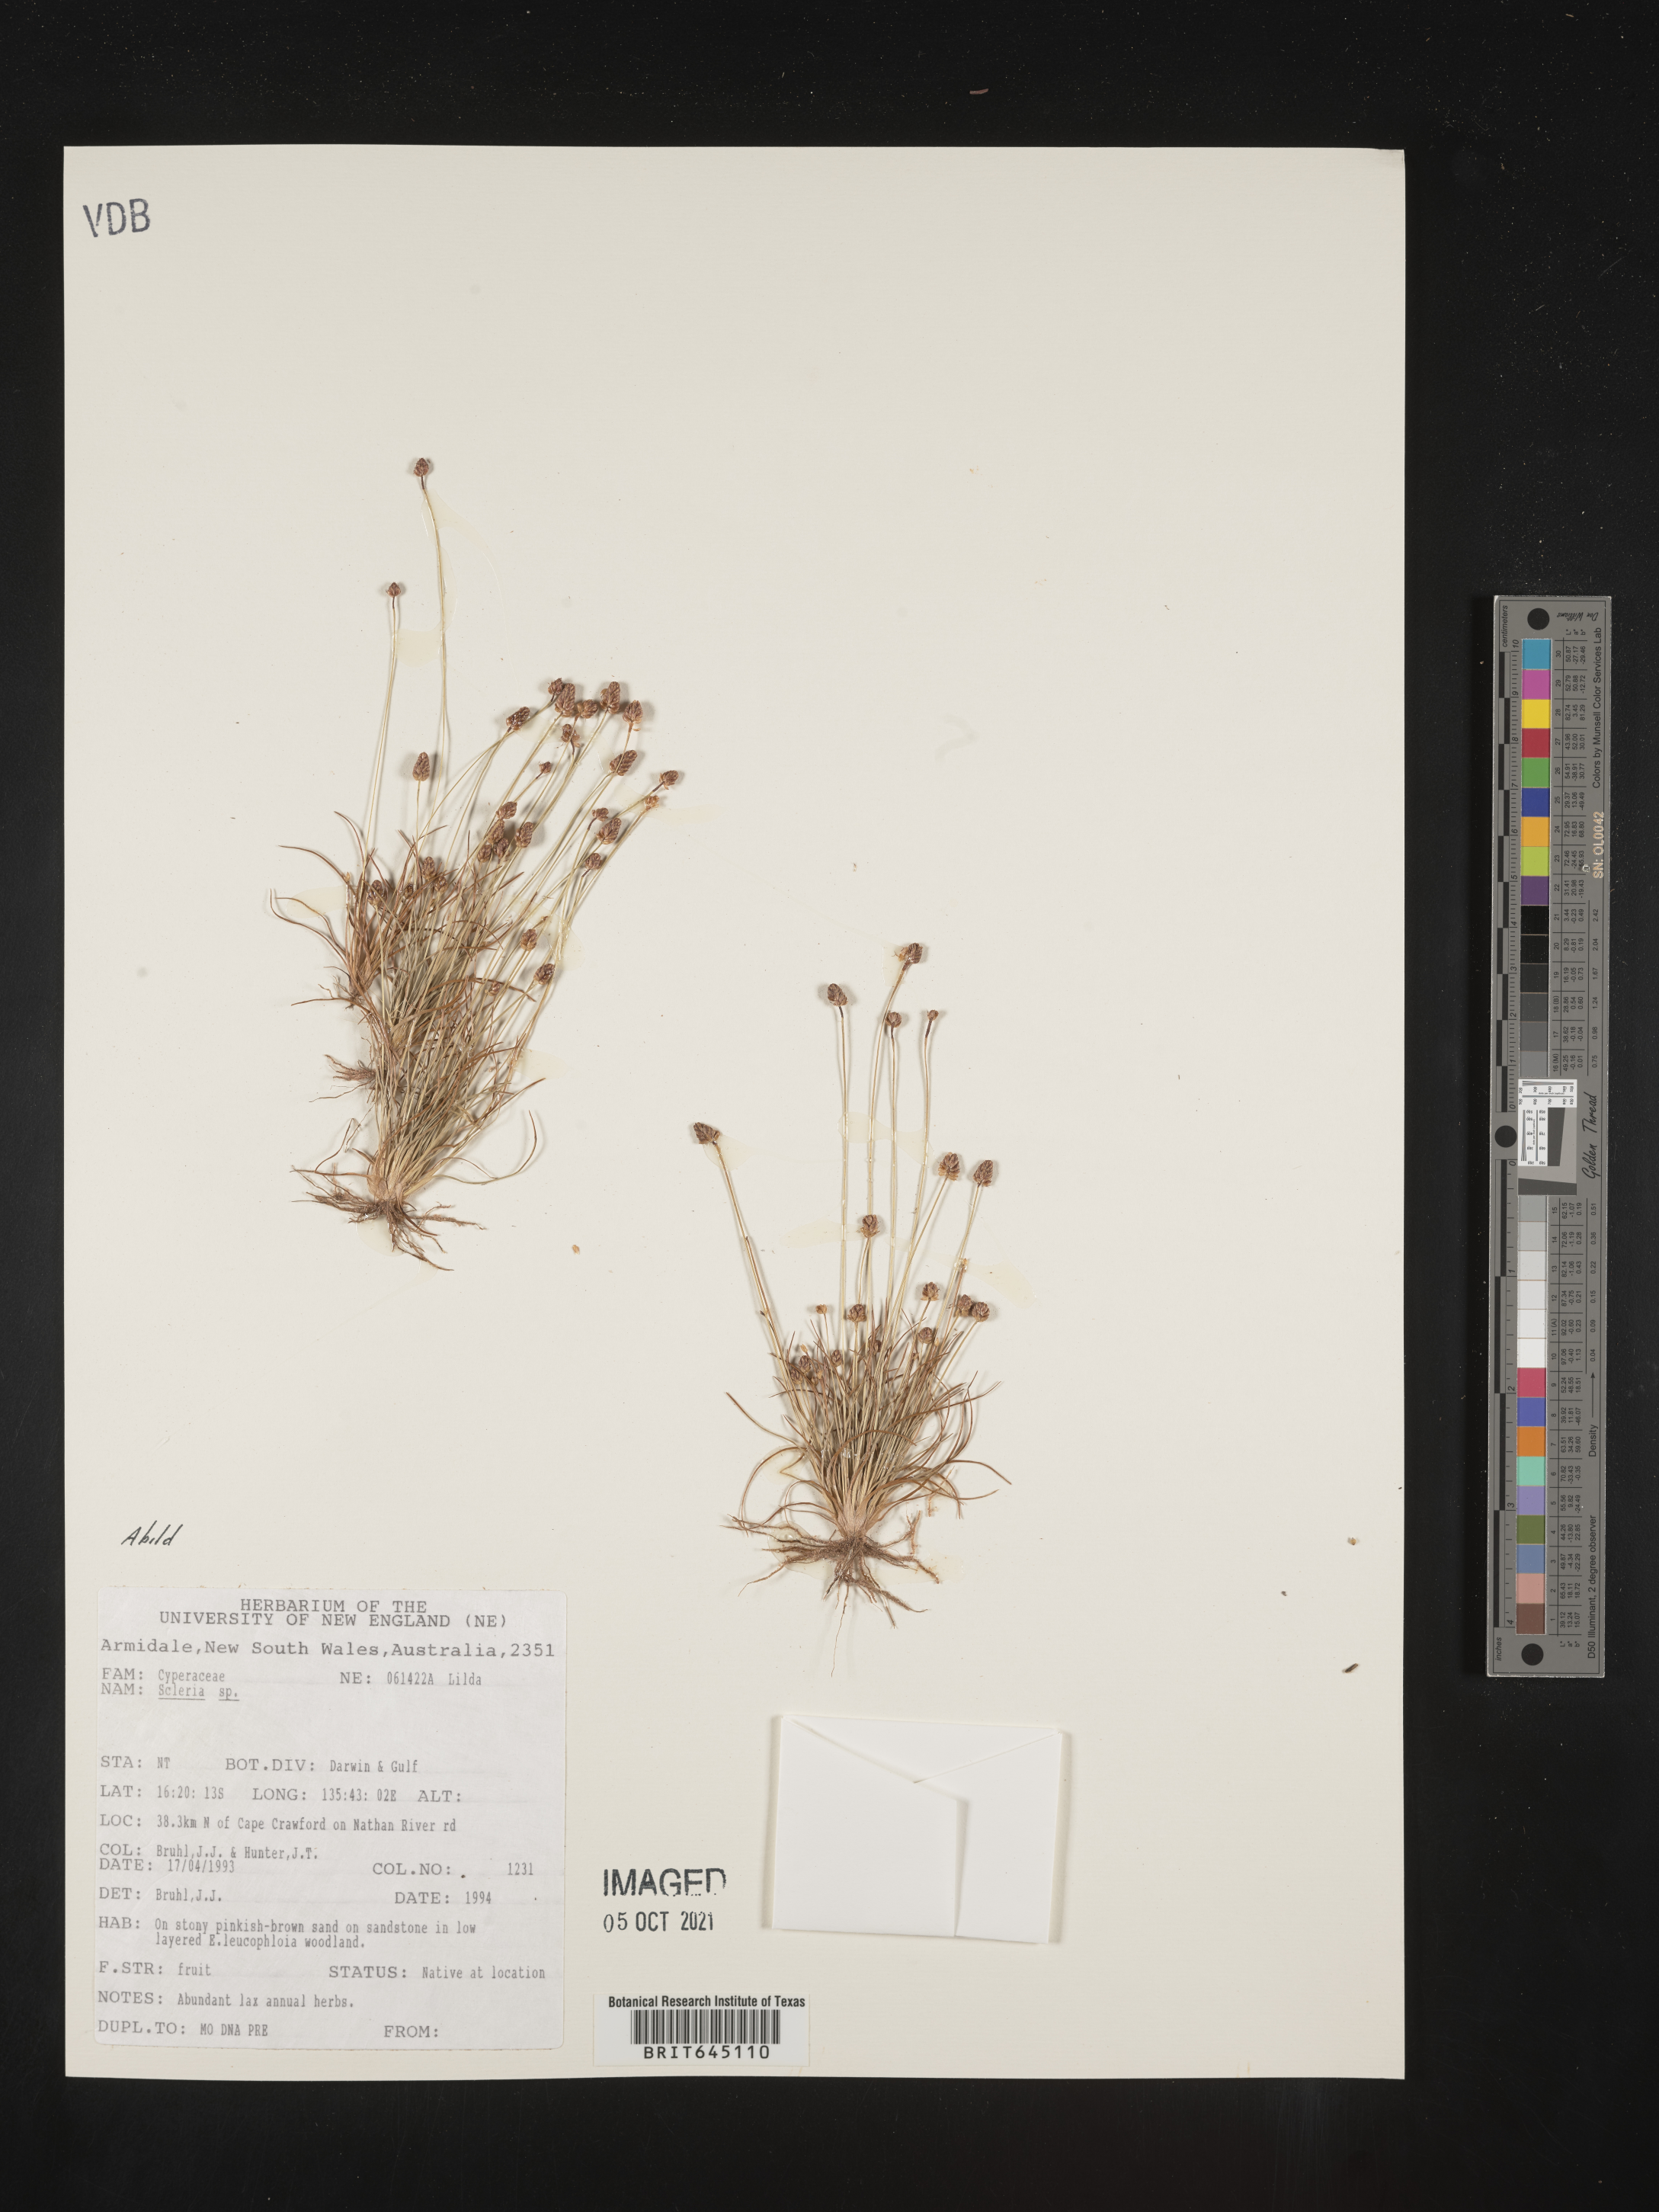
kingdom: Plantae
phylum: Tracheophyta
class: Liliopsida
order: Poales
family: Cyperaceae
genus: Abildgaardia
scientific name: Abildgaardia
